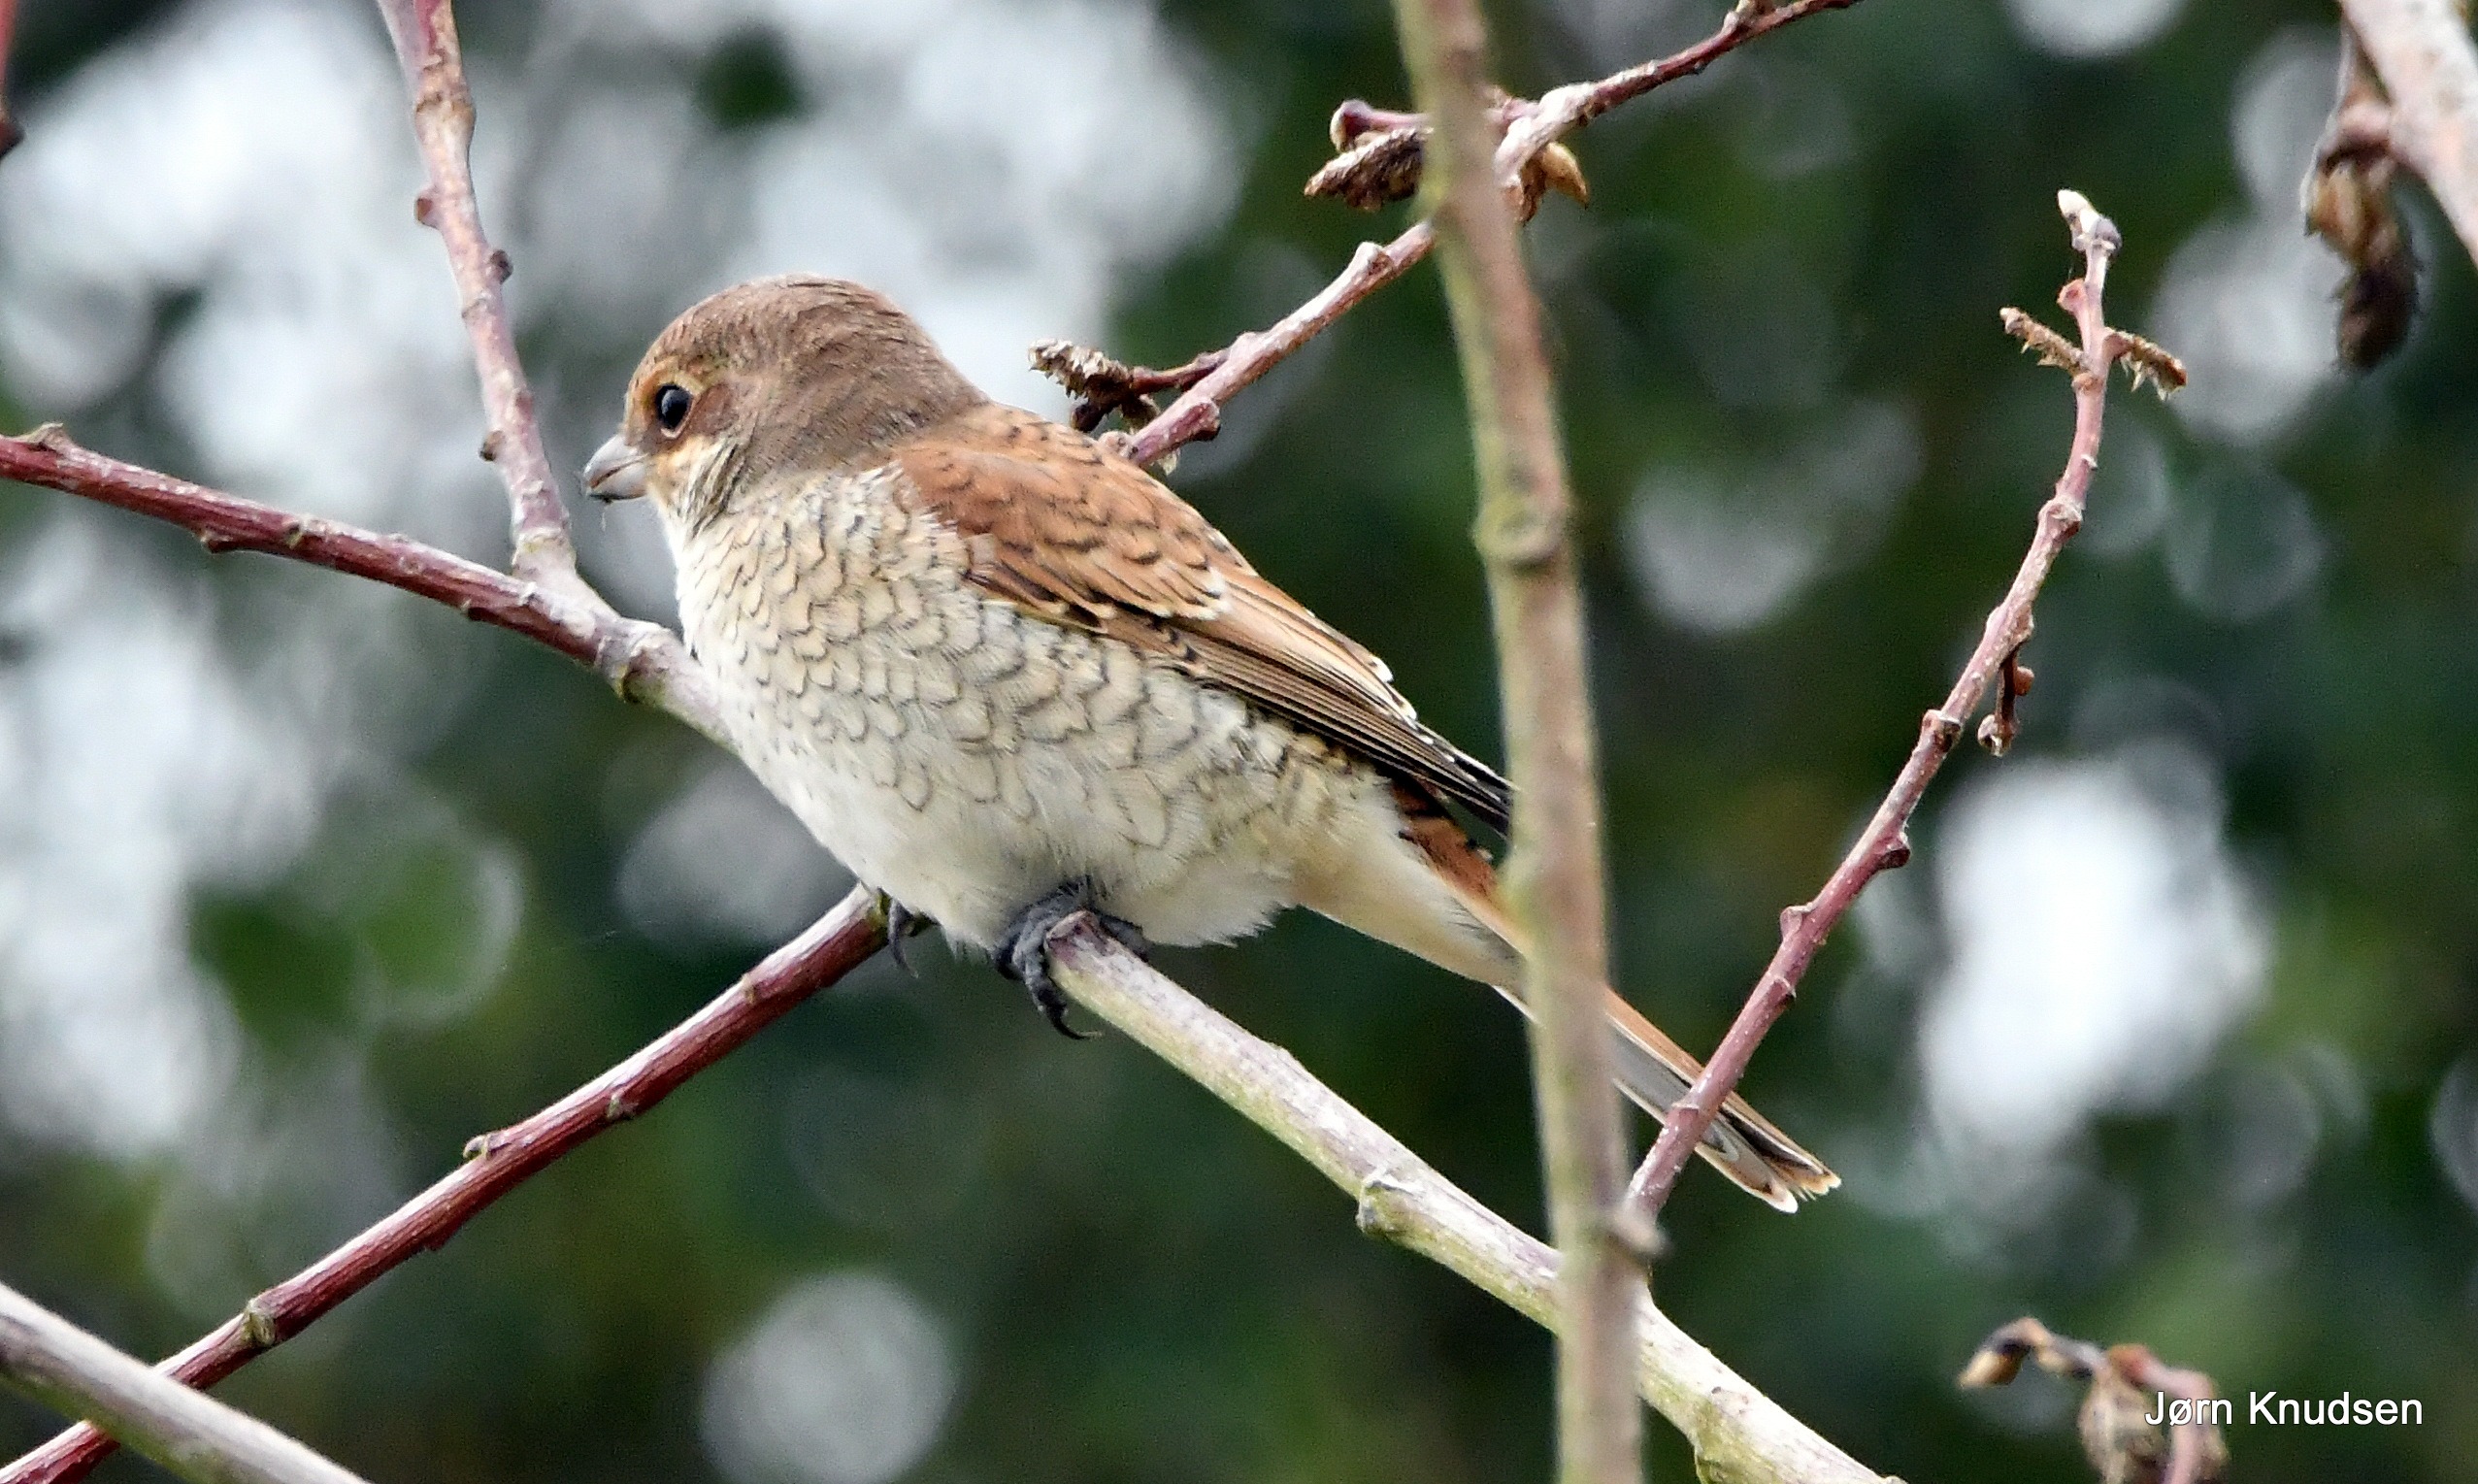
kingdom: Animalia
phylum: Chordata
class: Aves
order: Passeriformes
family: Laniidae
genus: Lanius
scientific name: Lanius collurio
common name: Rødrygget tornskade
